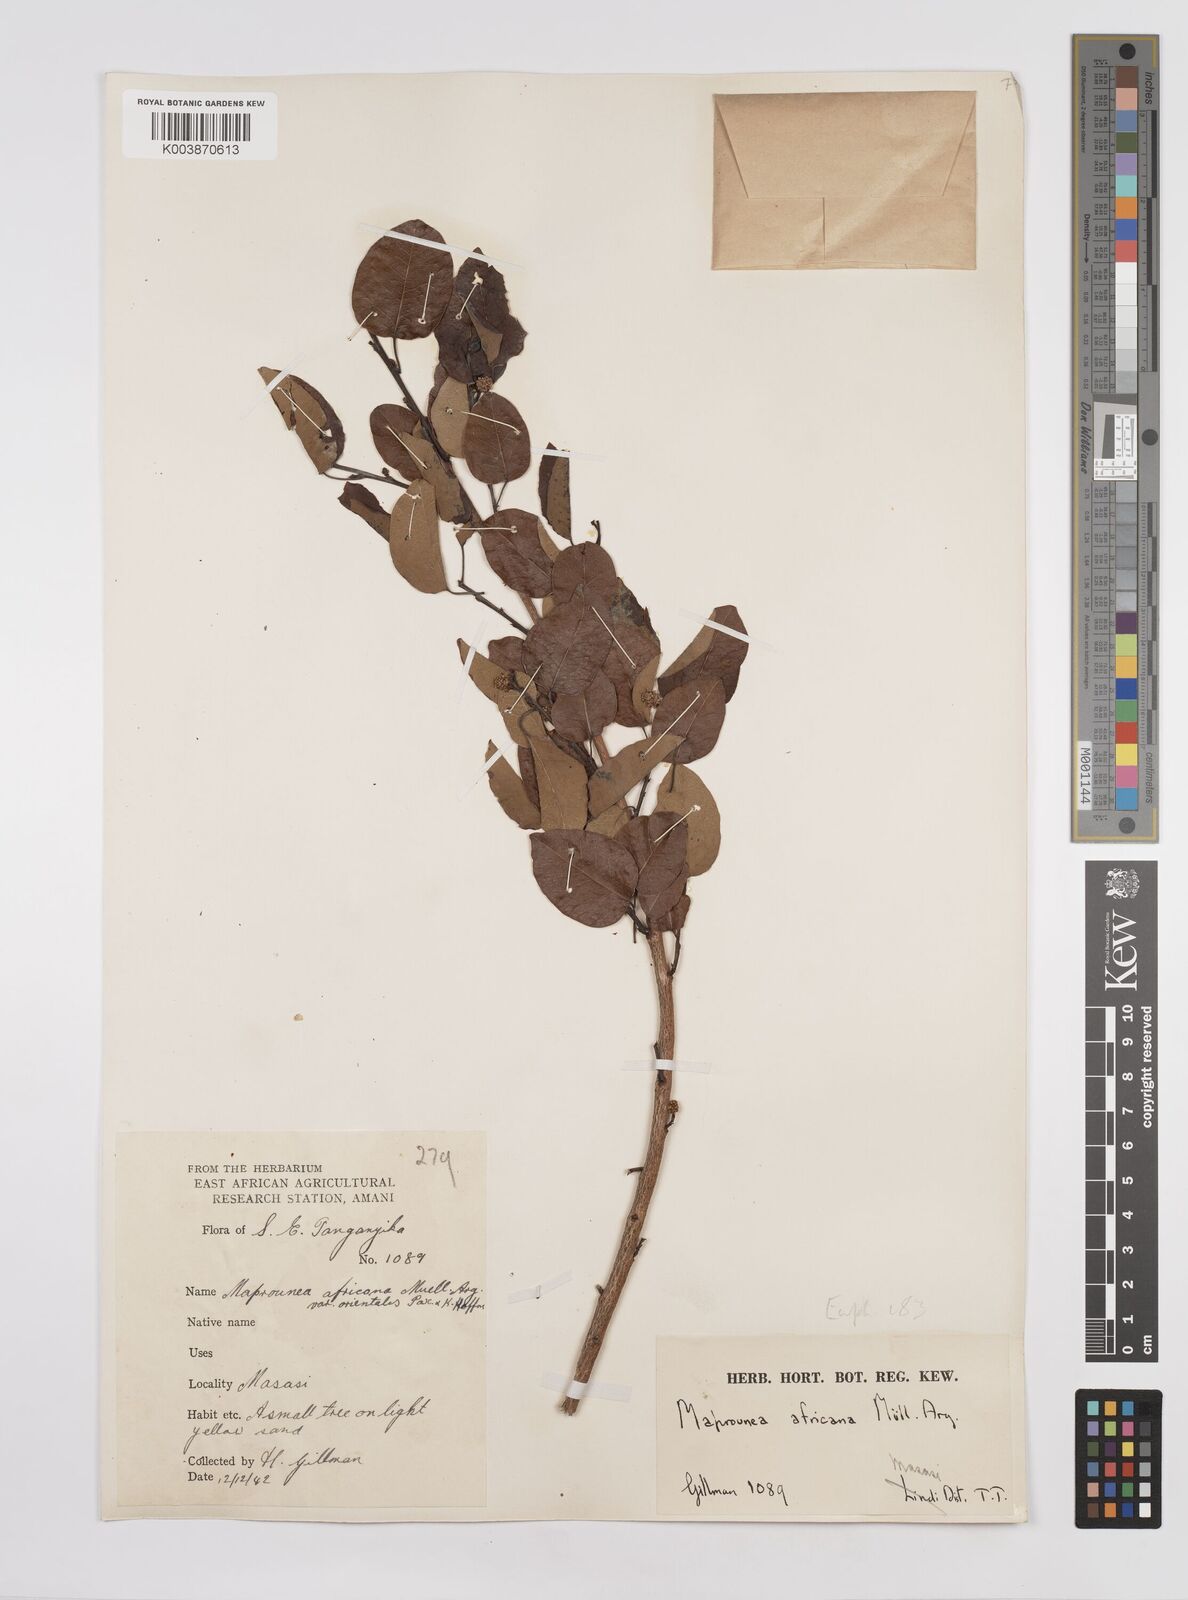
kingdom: Plantae
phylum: Tracheophyta
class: Magnoliopsida
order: Malpighiales
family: Euphorbiaceae
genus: Maprounea
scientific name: Maprounea africana
